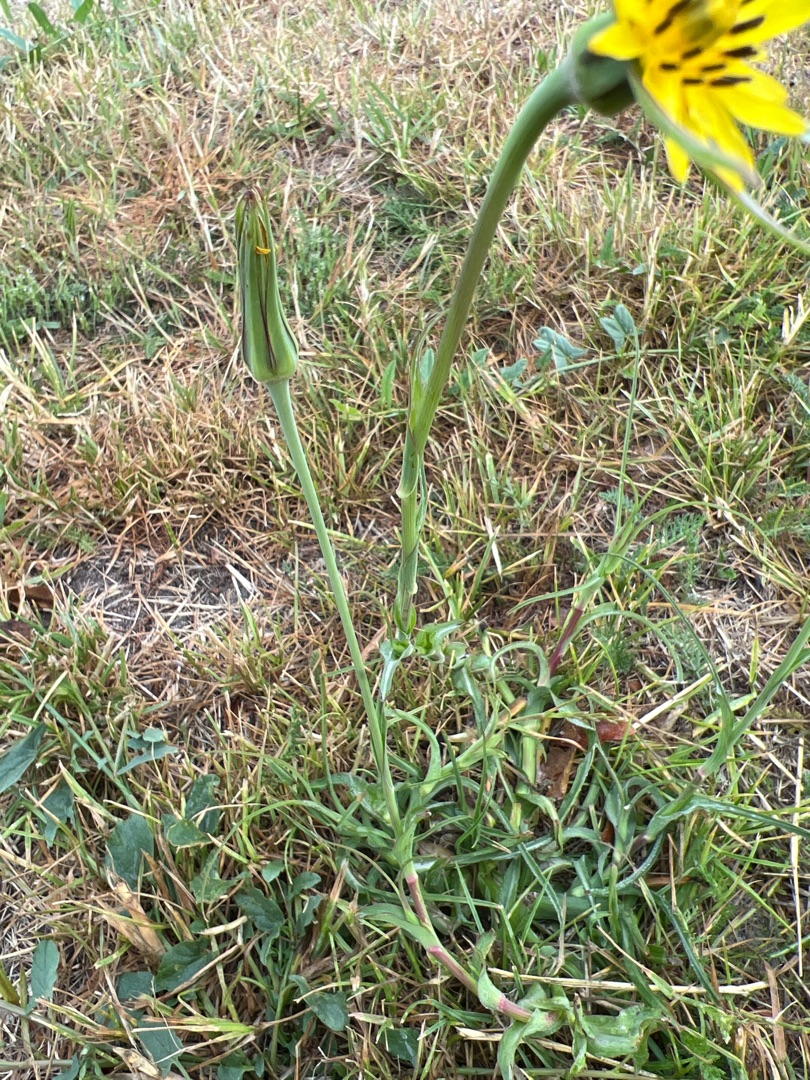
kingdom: Plantae
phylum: Tracheophyta
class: Magnoliopsida
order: Asterales
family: Asteraceae
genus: Tragopogon
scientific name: Tragopogon minor
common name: Småkronet gedeskæg
